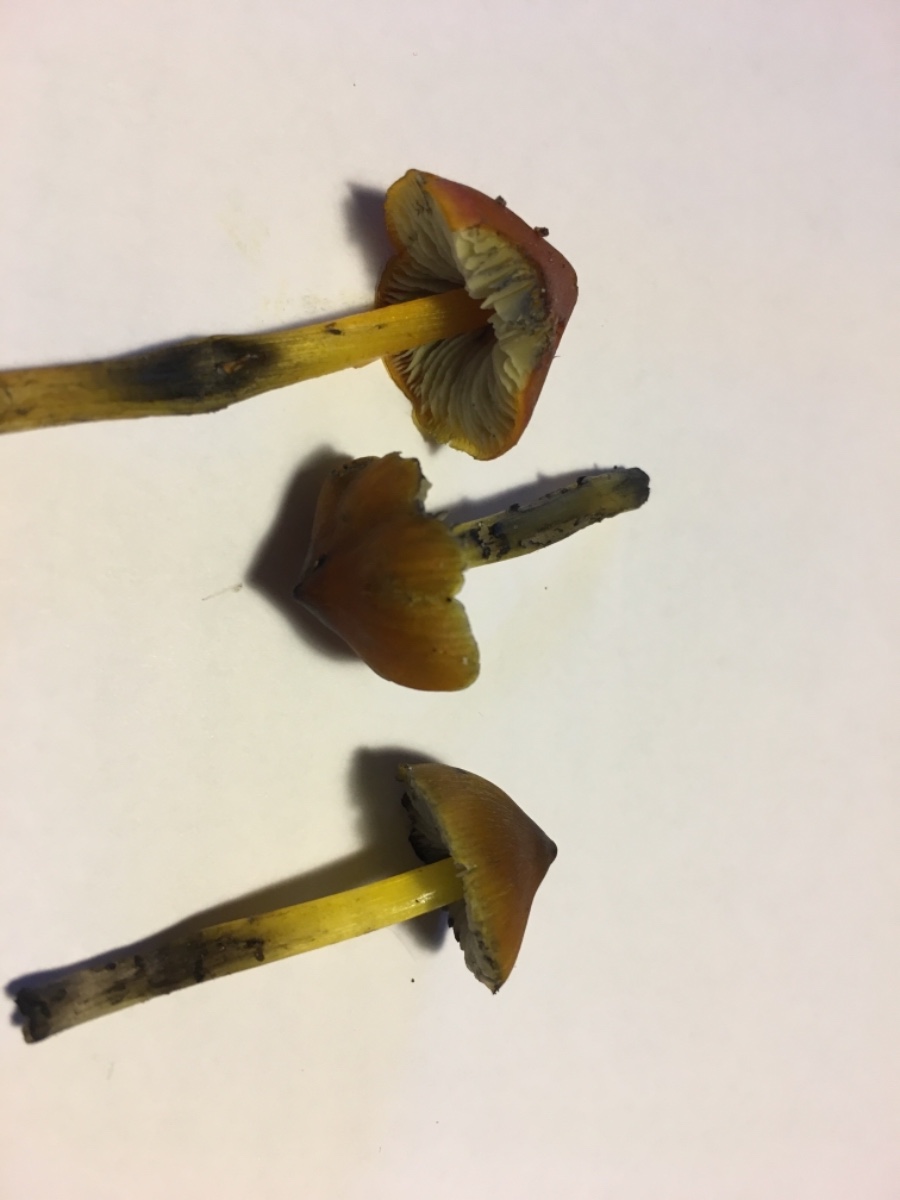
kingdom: Fungi
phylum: Basidiomycota
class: Agaricomycetes
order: Agaricales
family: Hygrophoraceae
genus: Hygrocybe
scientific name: Hygrocybe conica
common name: kegle-vokshat
